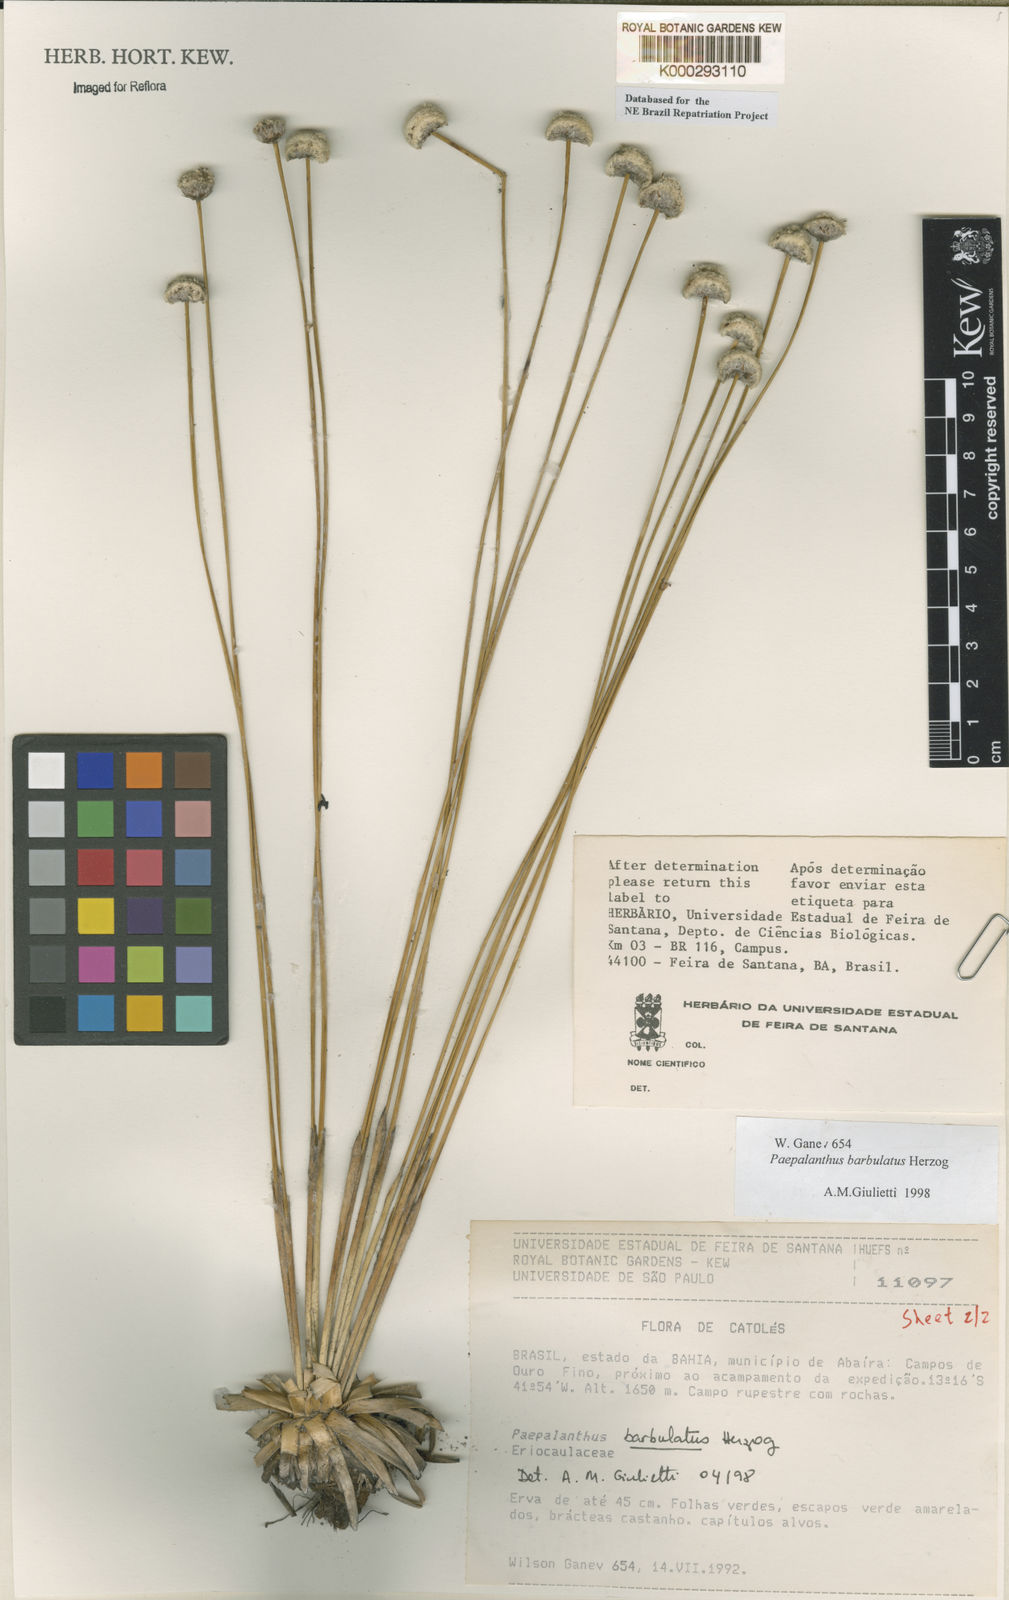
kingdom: Plantae
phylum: Tracheophyta
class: Liliopsida
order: Poales
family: Eriocaulaceae
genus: Paepalanthus
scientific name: Paepalanthus barbulatus
